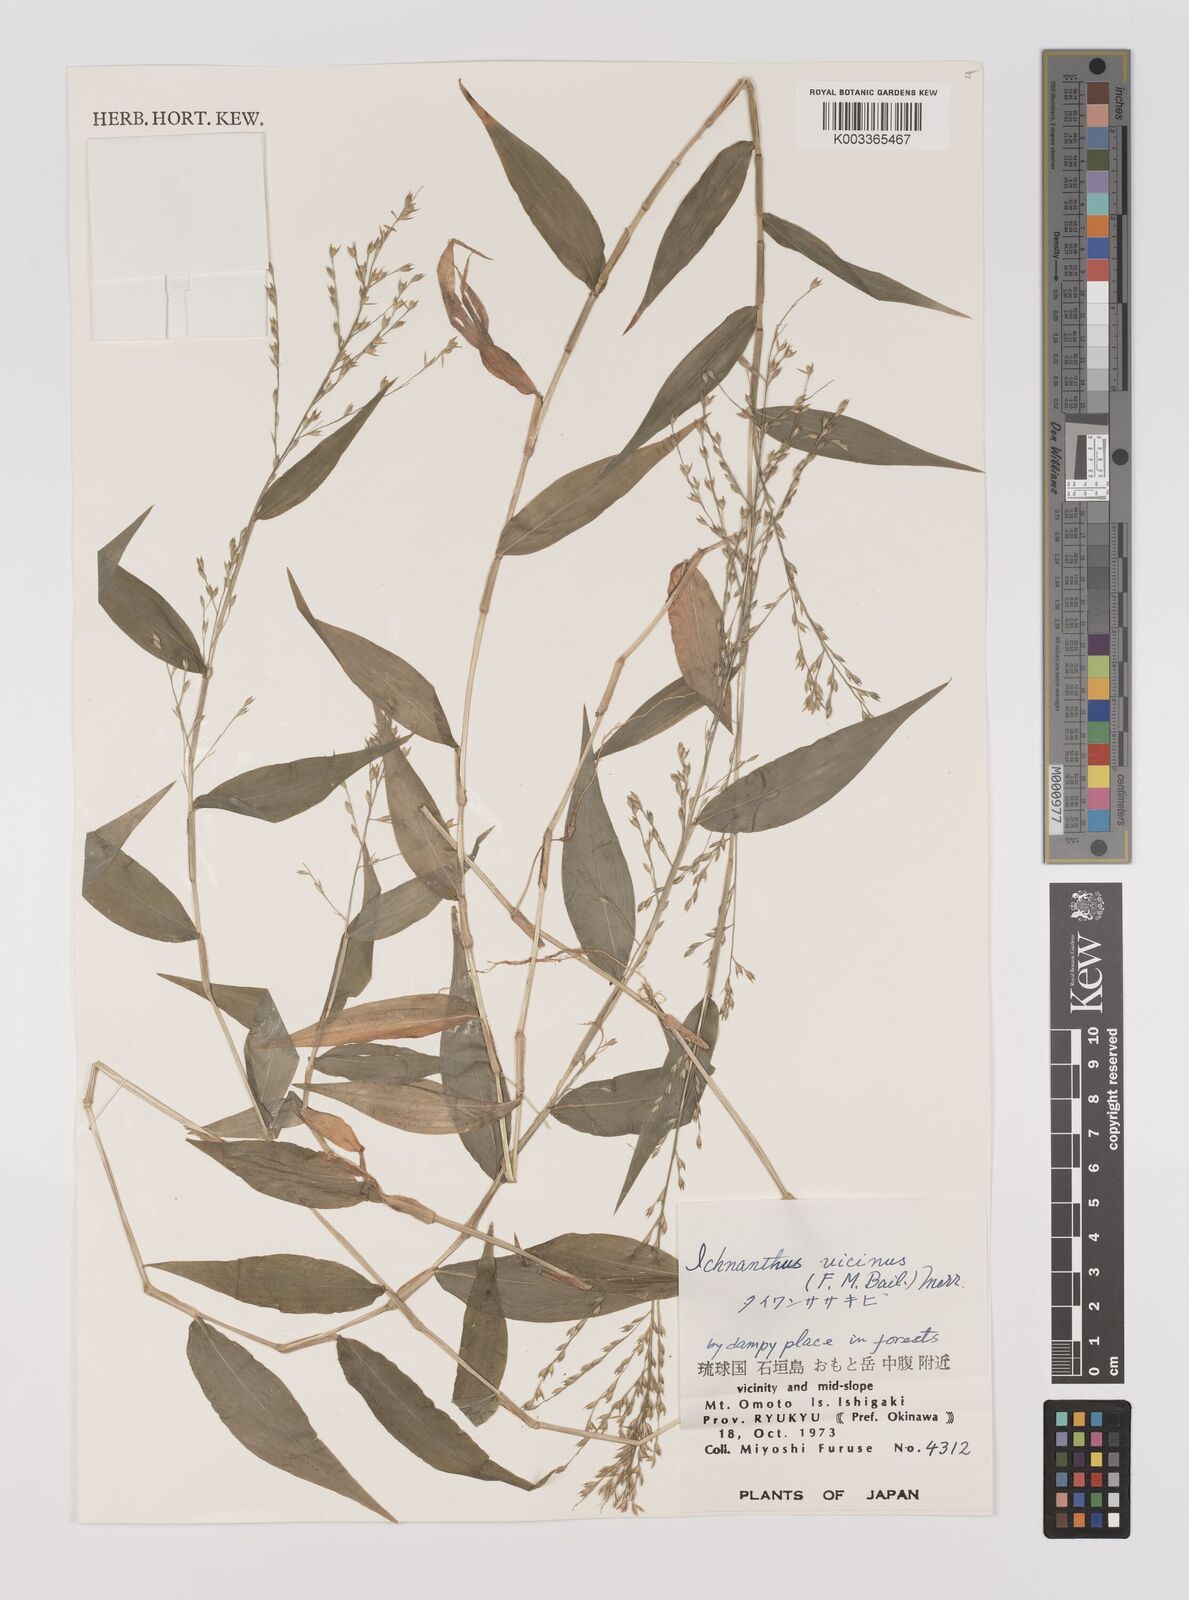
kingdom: Plantae
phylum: Tracheophyta
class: Liliopsida
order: Poales
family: Poaceae
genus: Ichnanthus
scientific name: Ichnanthus pallens
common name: Water grass
